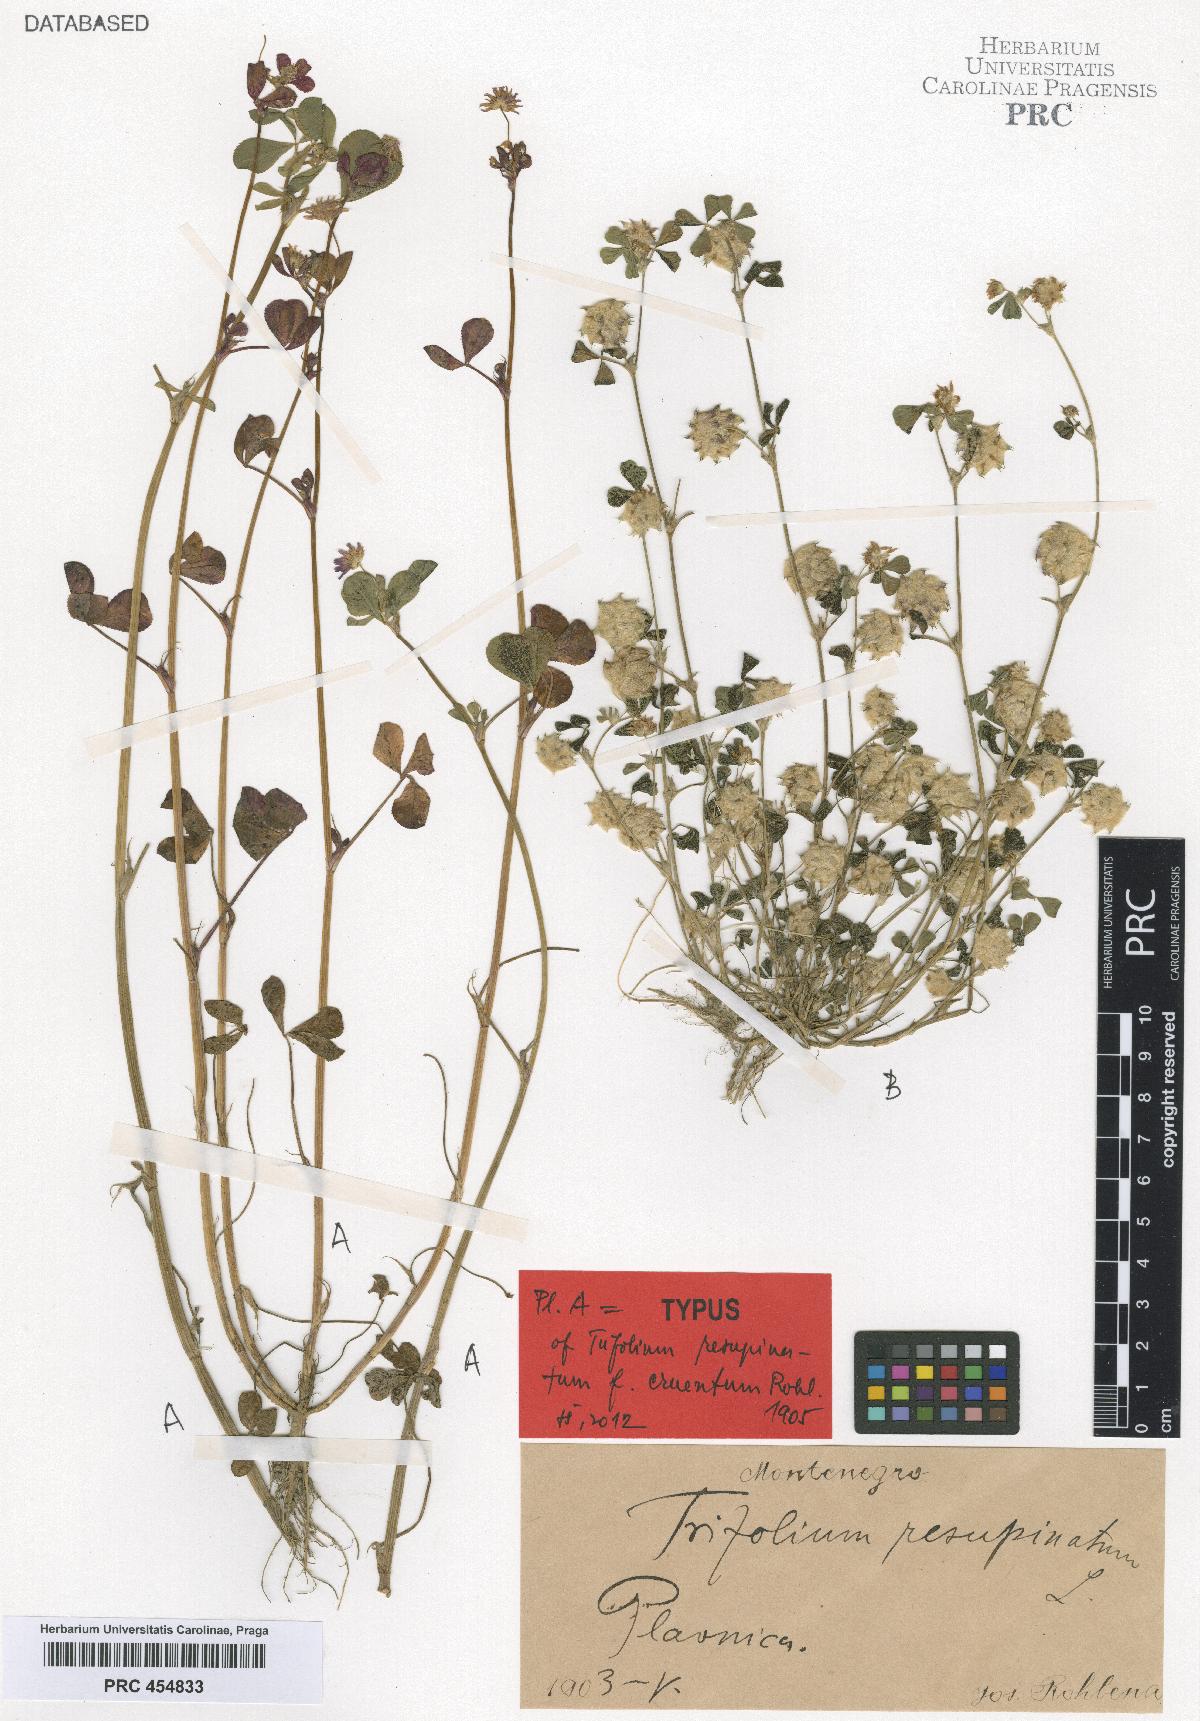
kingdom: Plantae
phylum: Tracheophyta
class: Magnoliopsida
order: Fabales
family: Fabaceae
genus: Trifolium
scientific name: Trifolium resupinatum
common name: Reversed clover
